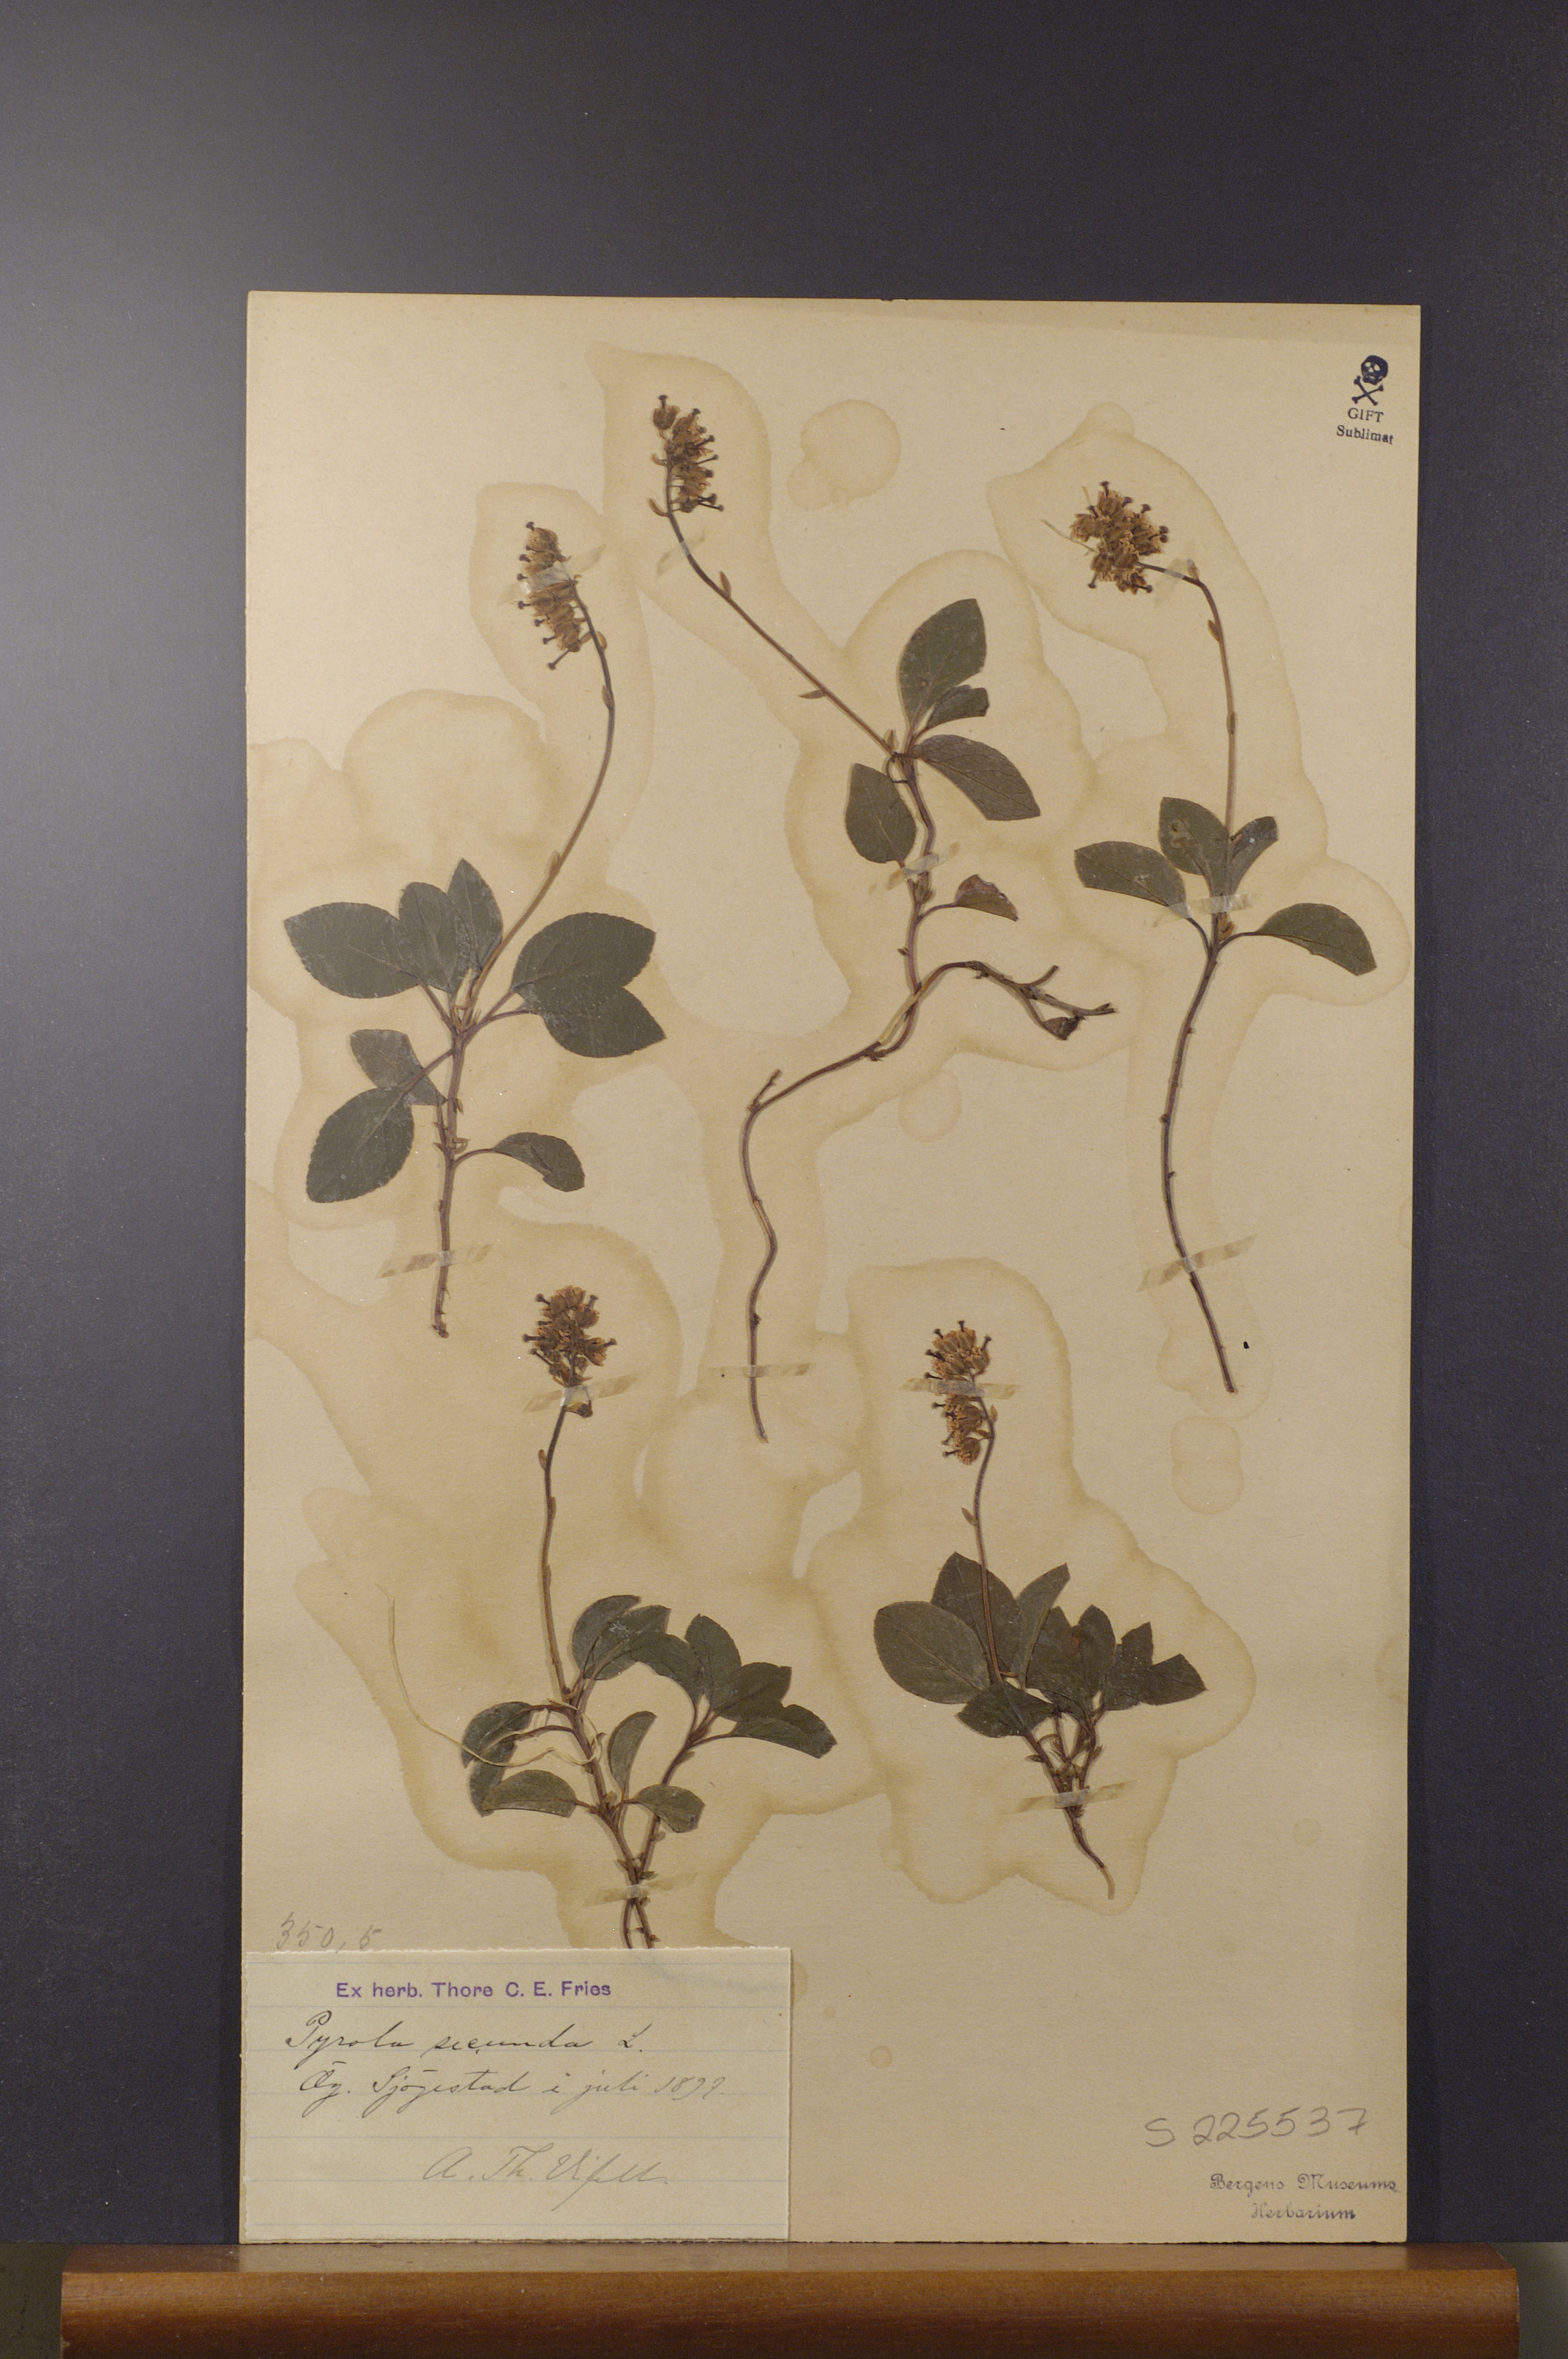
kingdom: Plantae
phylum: Tracheophyta
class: Magnoliopsida
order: Ericales
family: Ericaceae
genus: Orthilia
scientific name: Orthilia secunda
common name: One-sided orthilia
